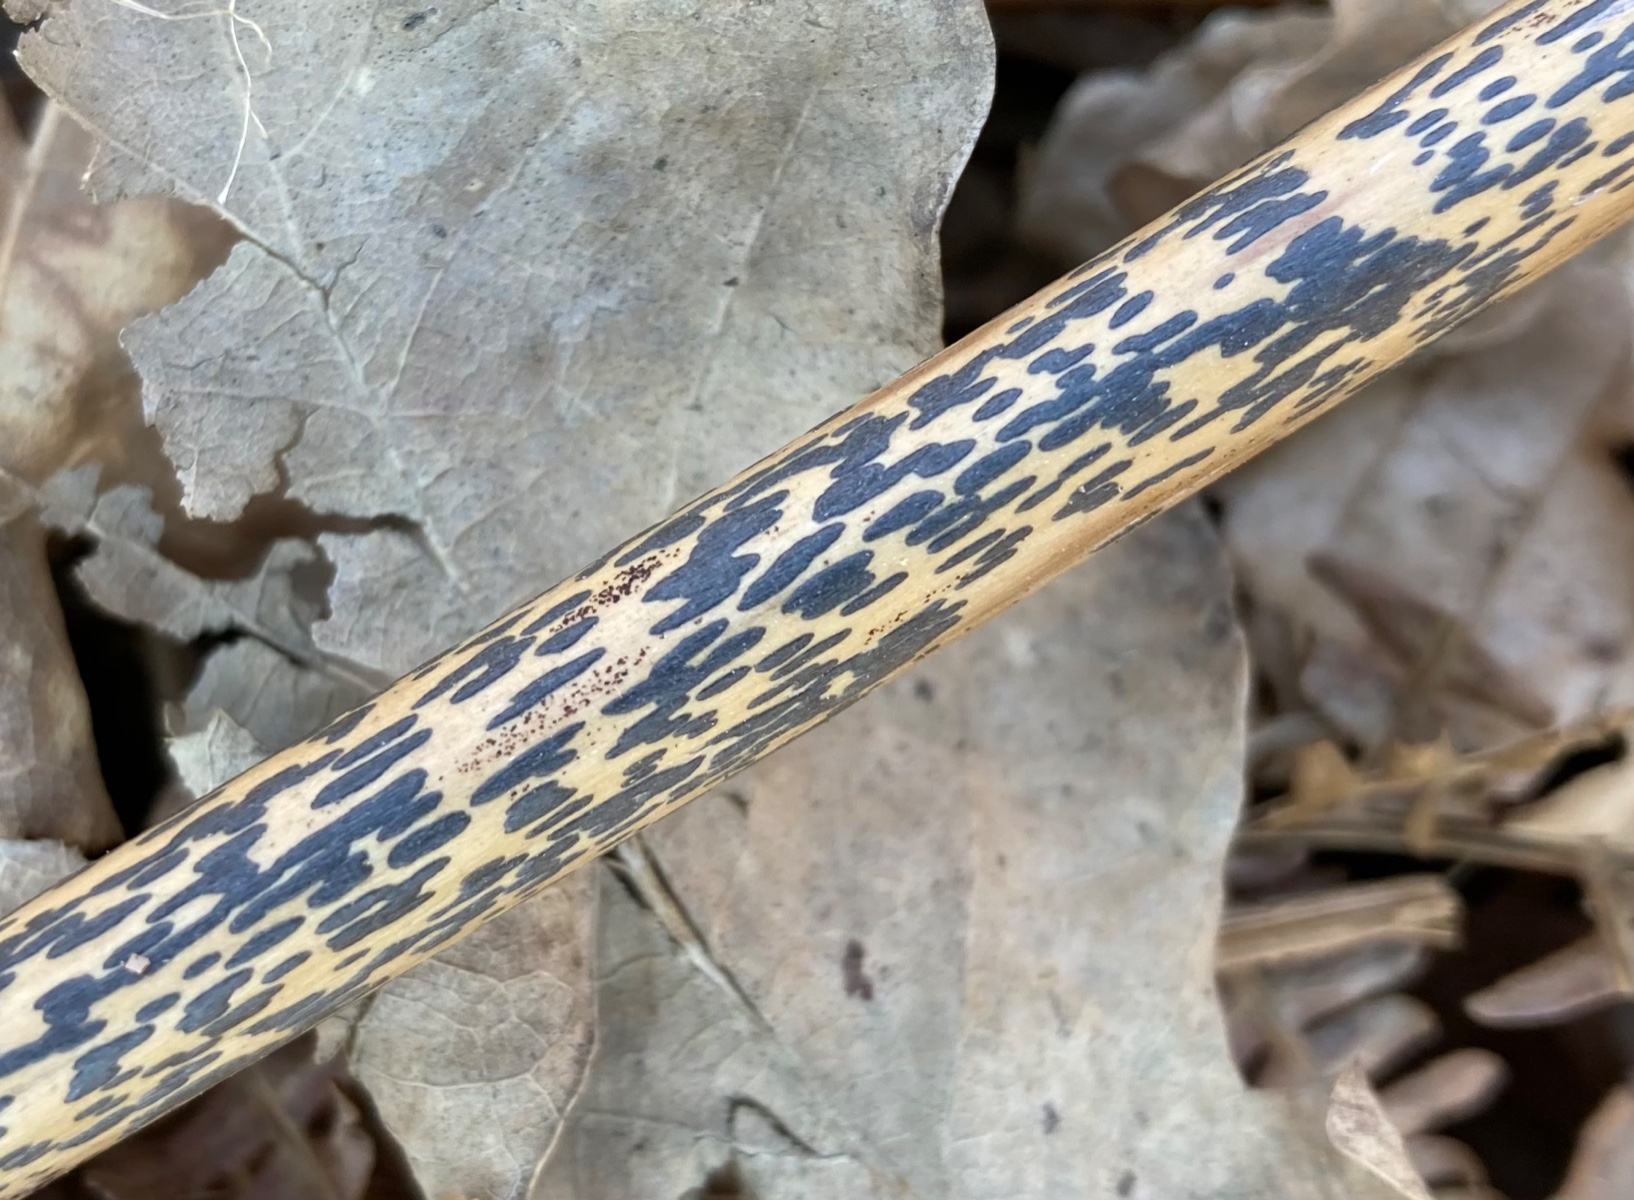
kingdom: Fungi
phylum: Ascomycota
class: Dothideomycetes
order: Pleosporales
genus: Rhopographus
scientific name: Rhopographus filicinus
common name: Bracken map
